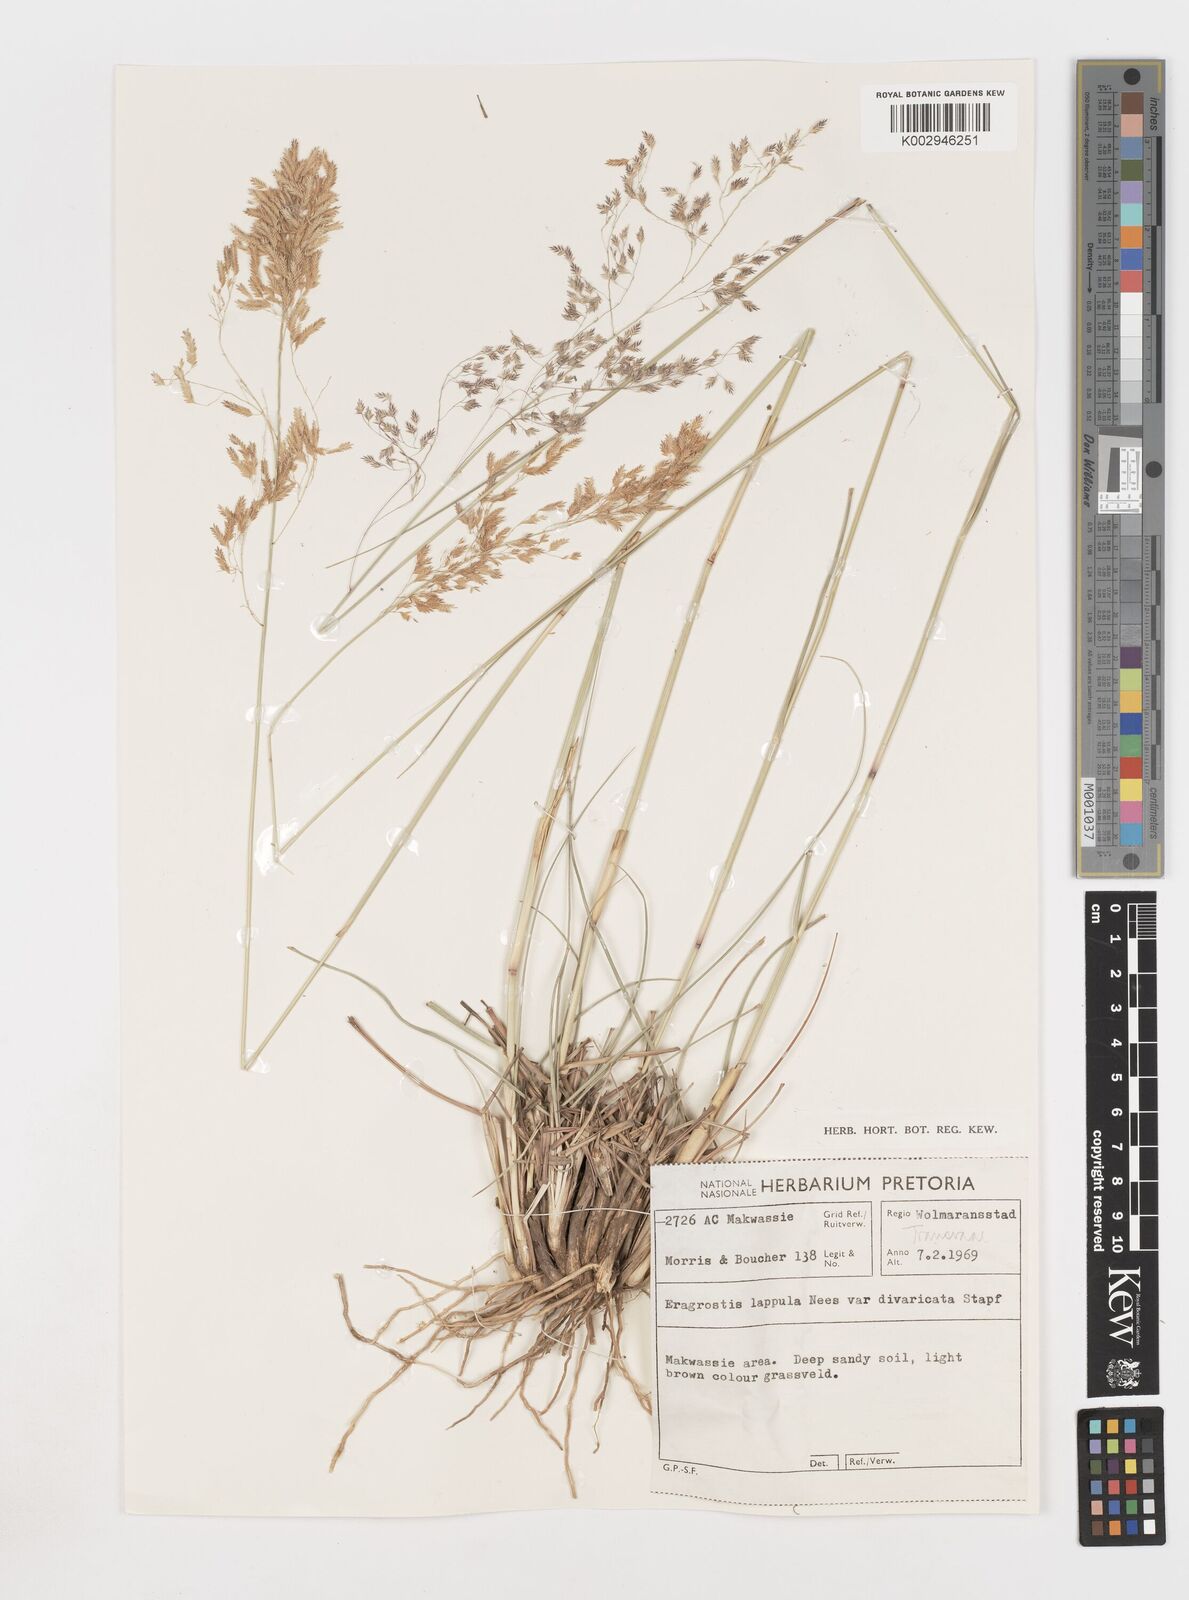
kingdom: Plantae
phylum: Tracheophyta
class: Liliopsida
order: Poales
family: Poaceae
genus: Eragrostis
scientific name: Eragrostis lappula
